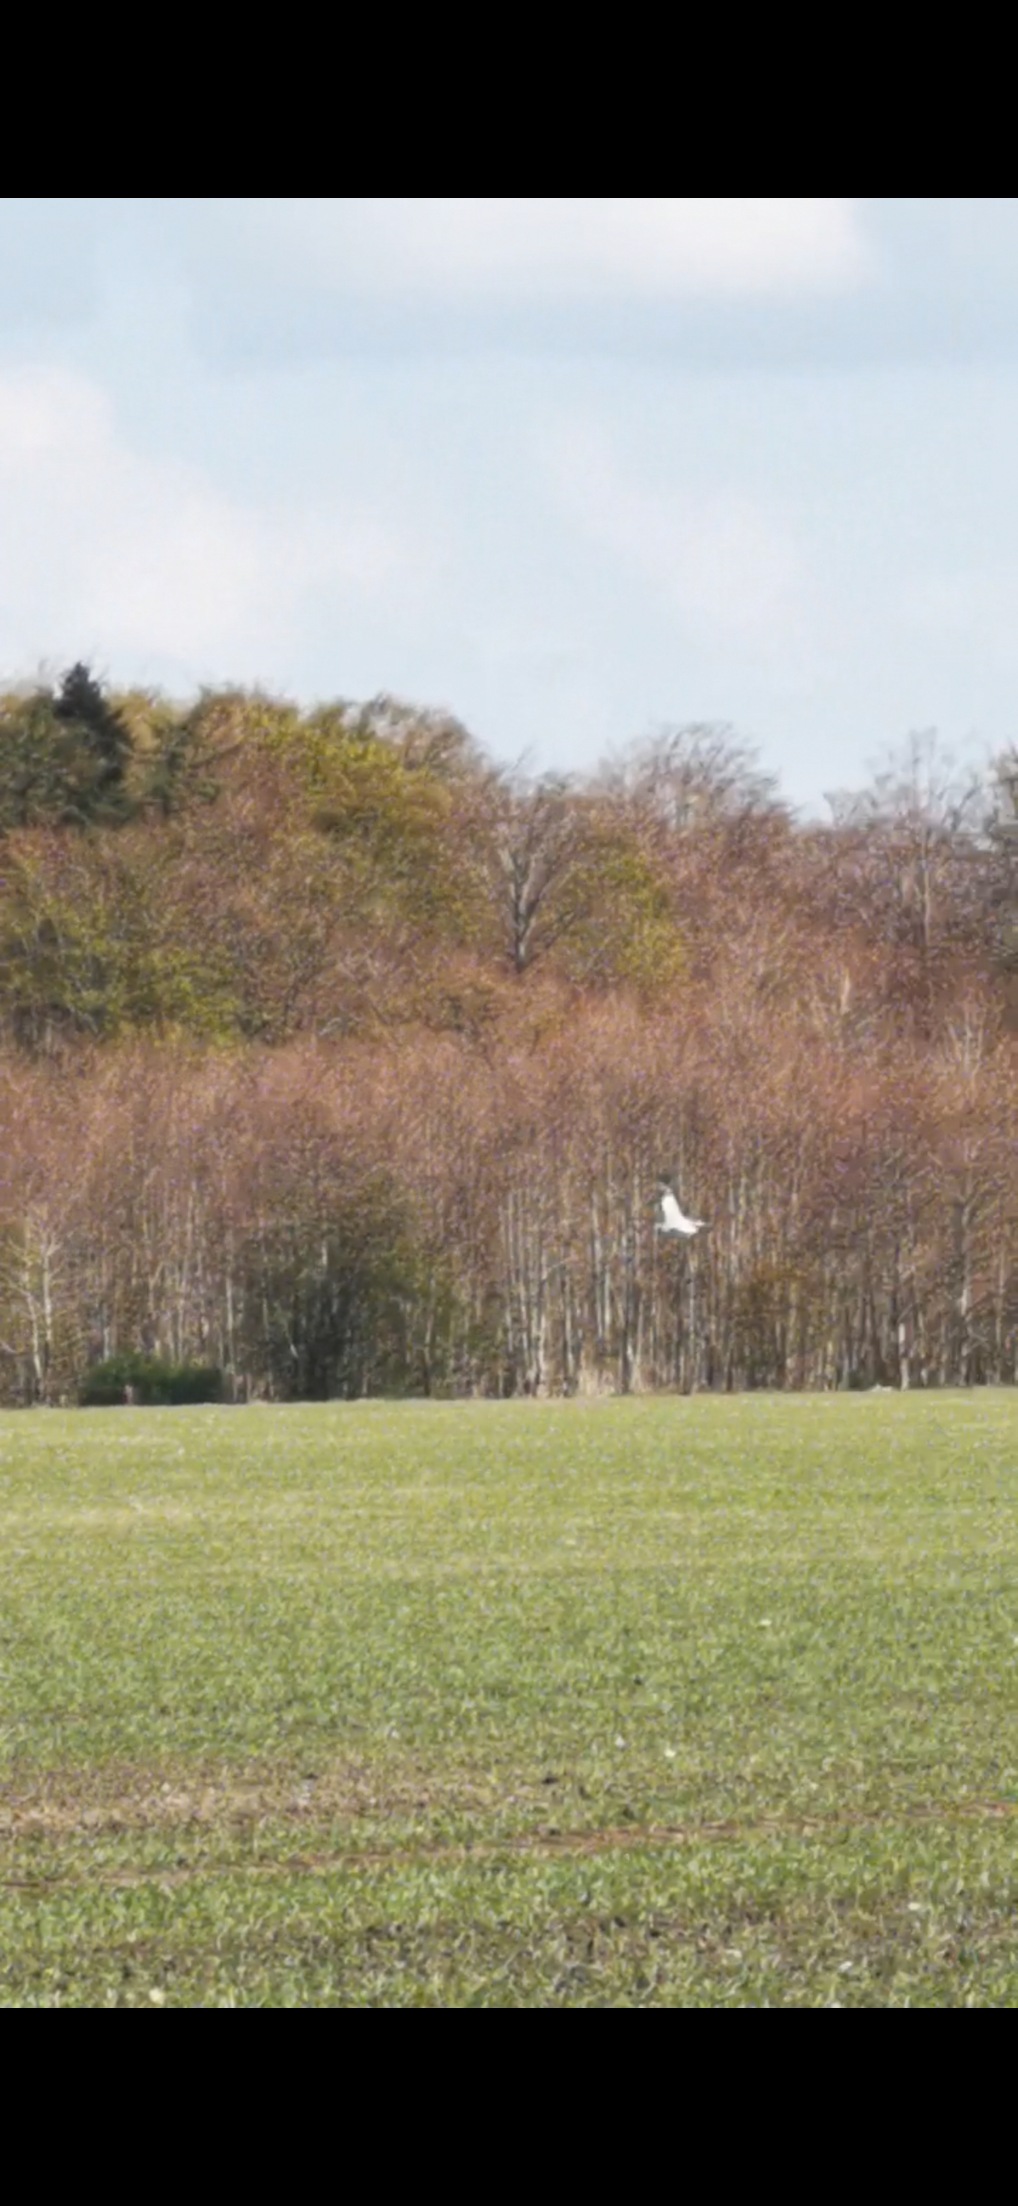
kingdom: Animalia
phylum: Chordata
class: Aves
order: Ciconiiformes
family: Ciconiidae
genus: Ciconia
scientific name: Ciconia ciconia
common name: Hvid stork
